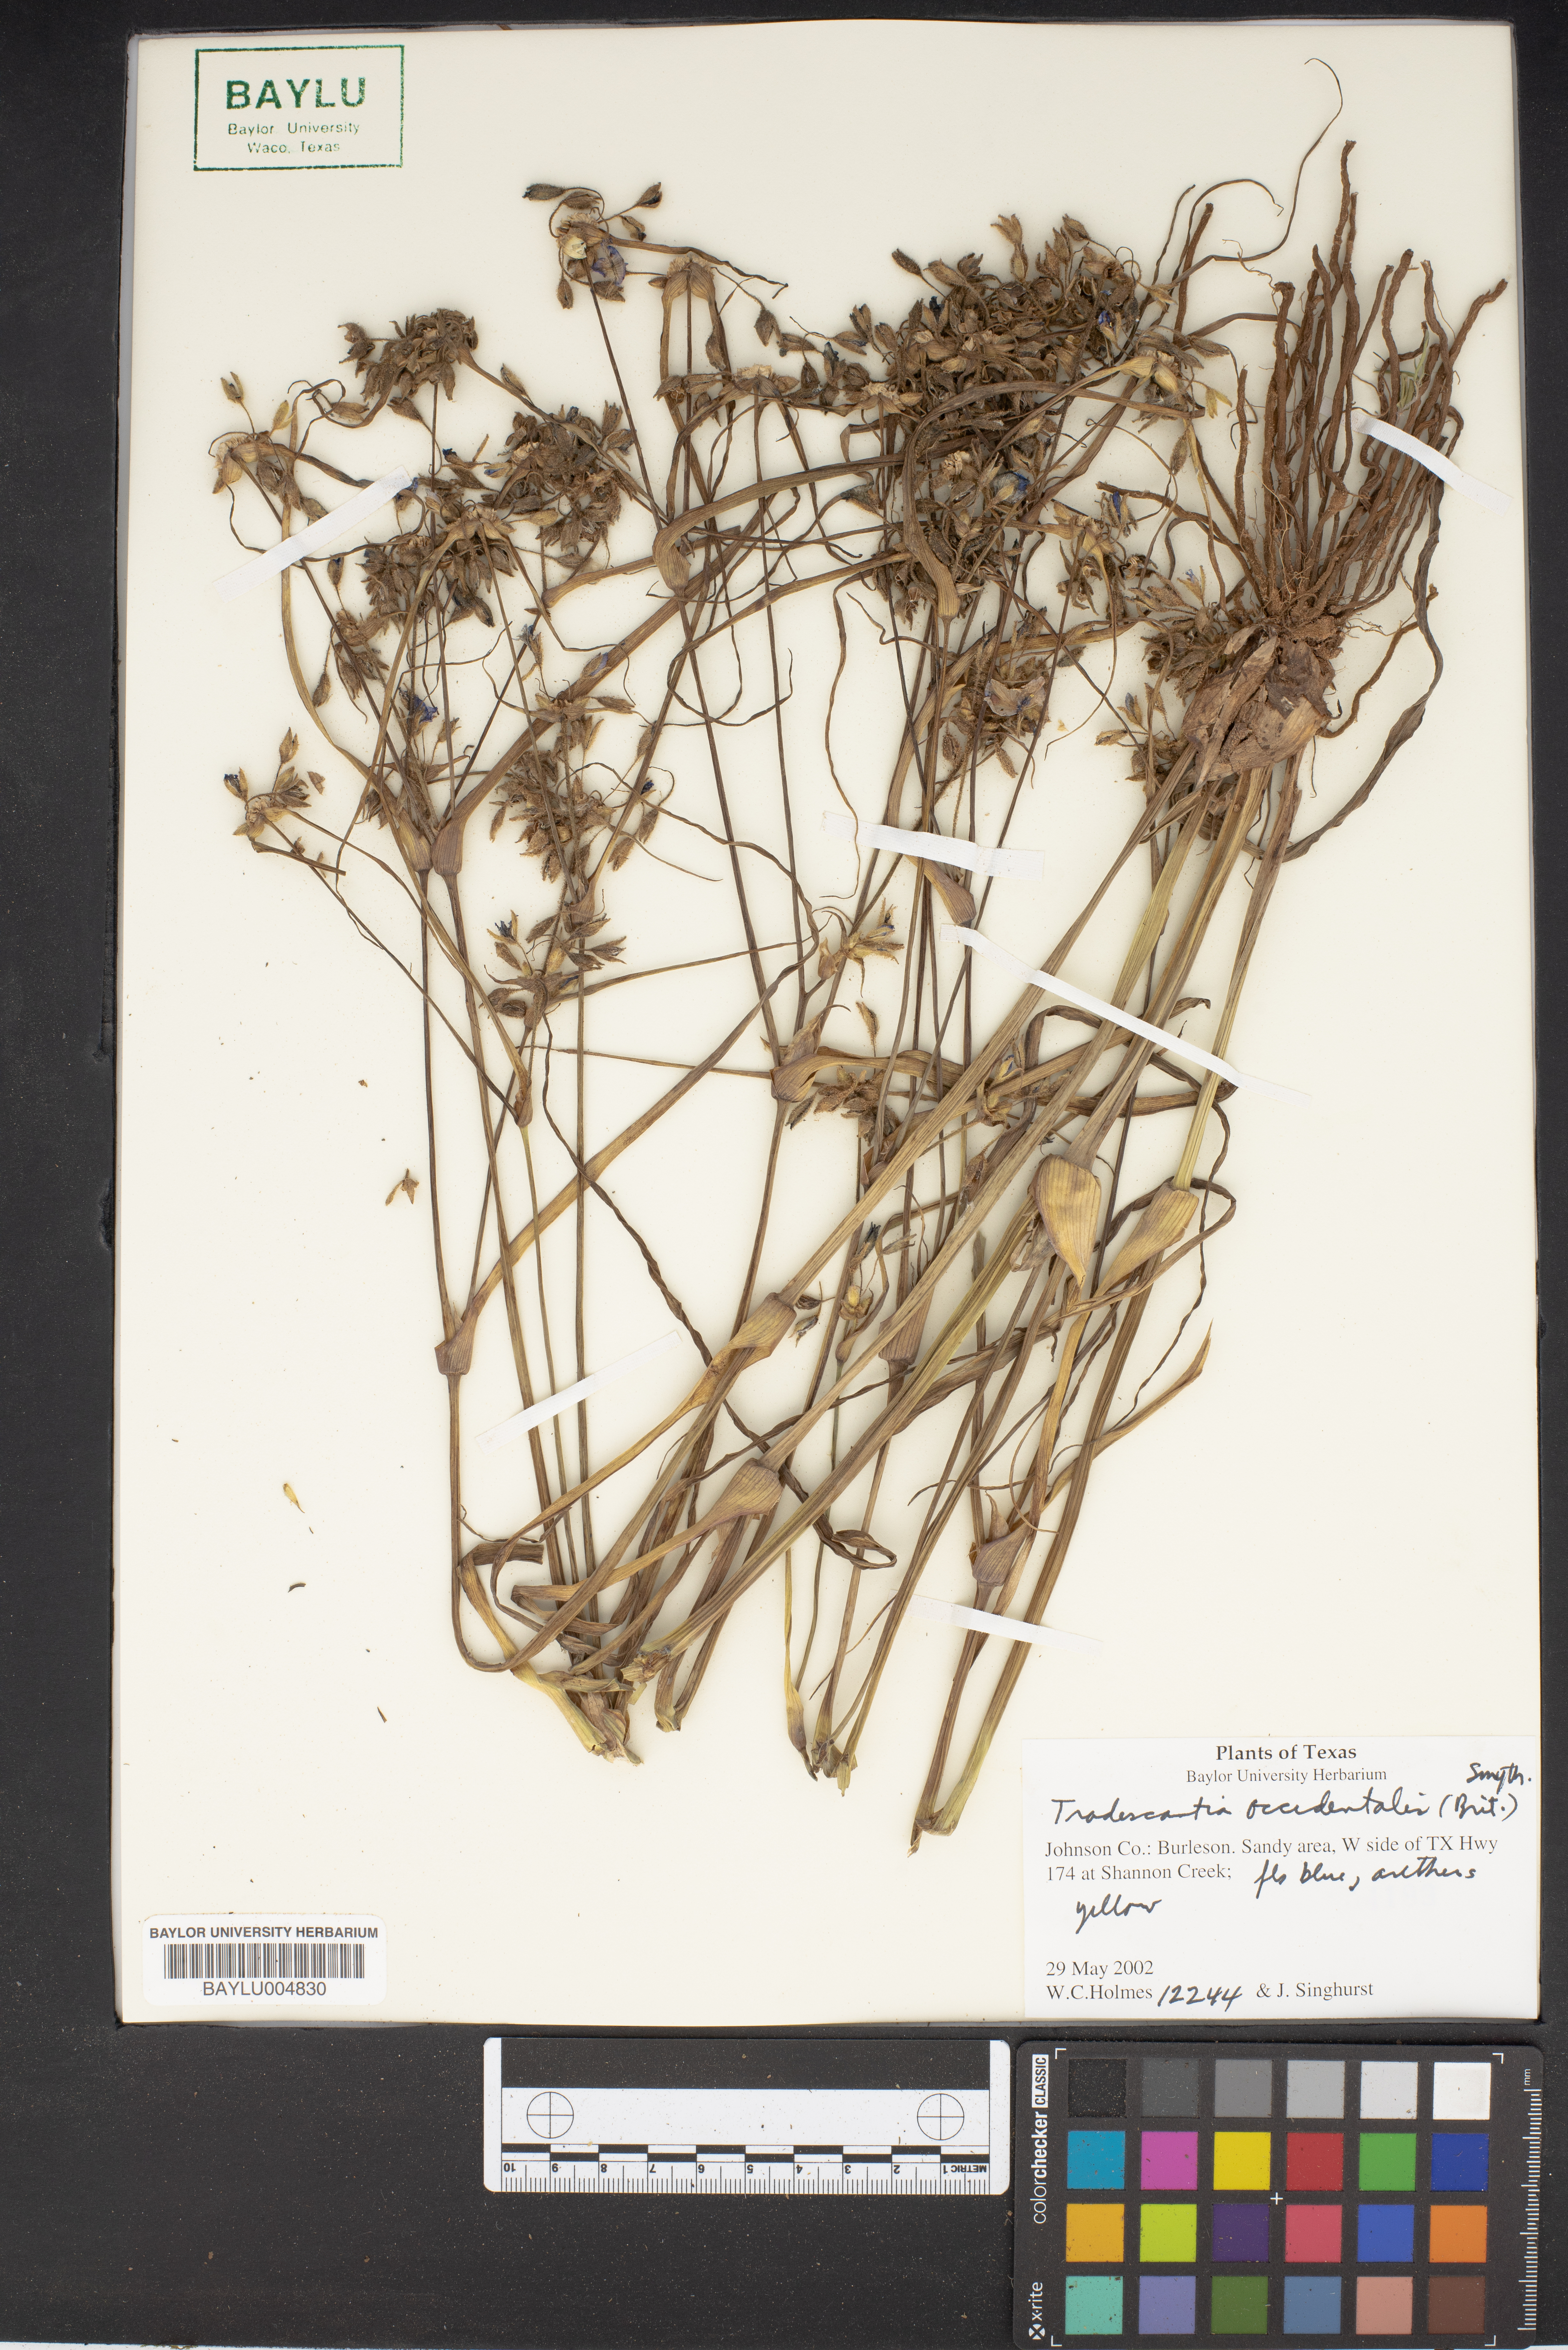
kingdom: Plantae
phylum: Tracheophyta
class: Liliopsida
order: Commelinales
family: Commelinaceae
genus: Tradescantia
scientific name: Tradescantia occidentalis
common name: Prairie spiderwort
